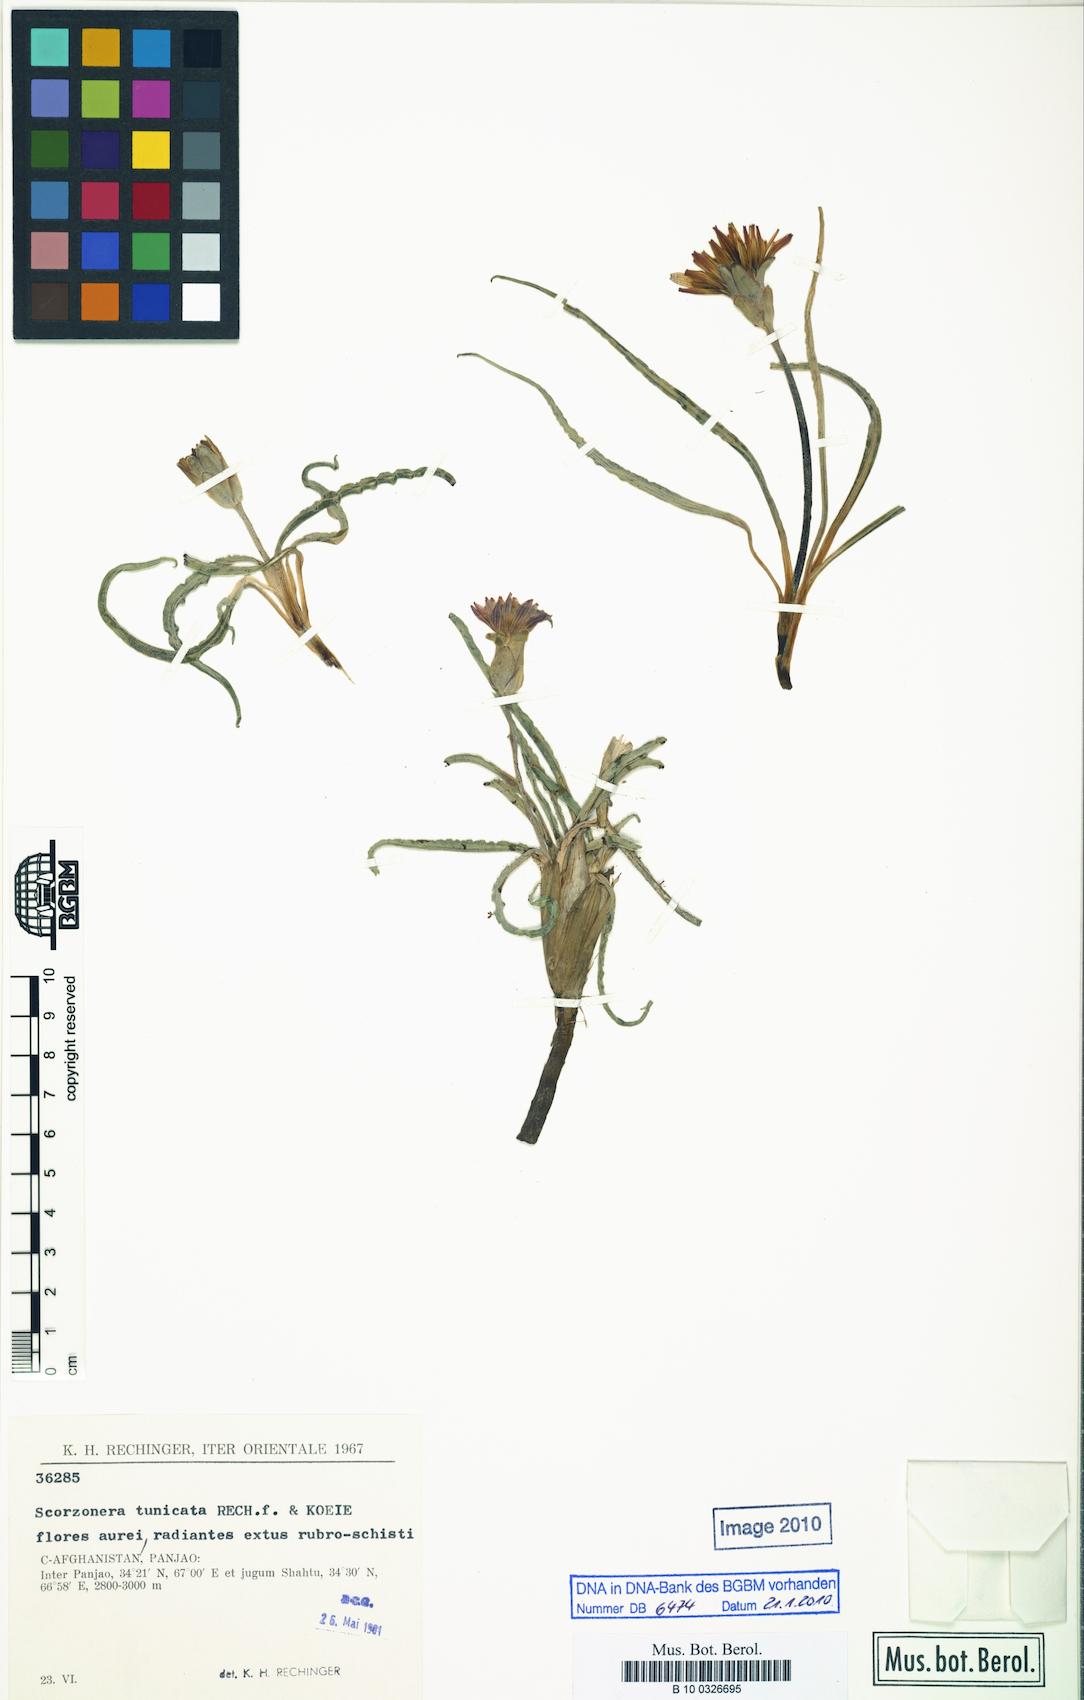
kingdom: Plantae
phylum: Tracheophyta
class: Magnoliopsida
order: Asterales
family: Asteraceae
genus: Scorzonera
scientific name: Scorzonera tunicata
